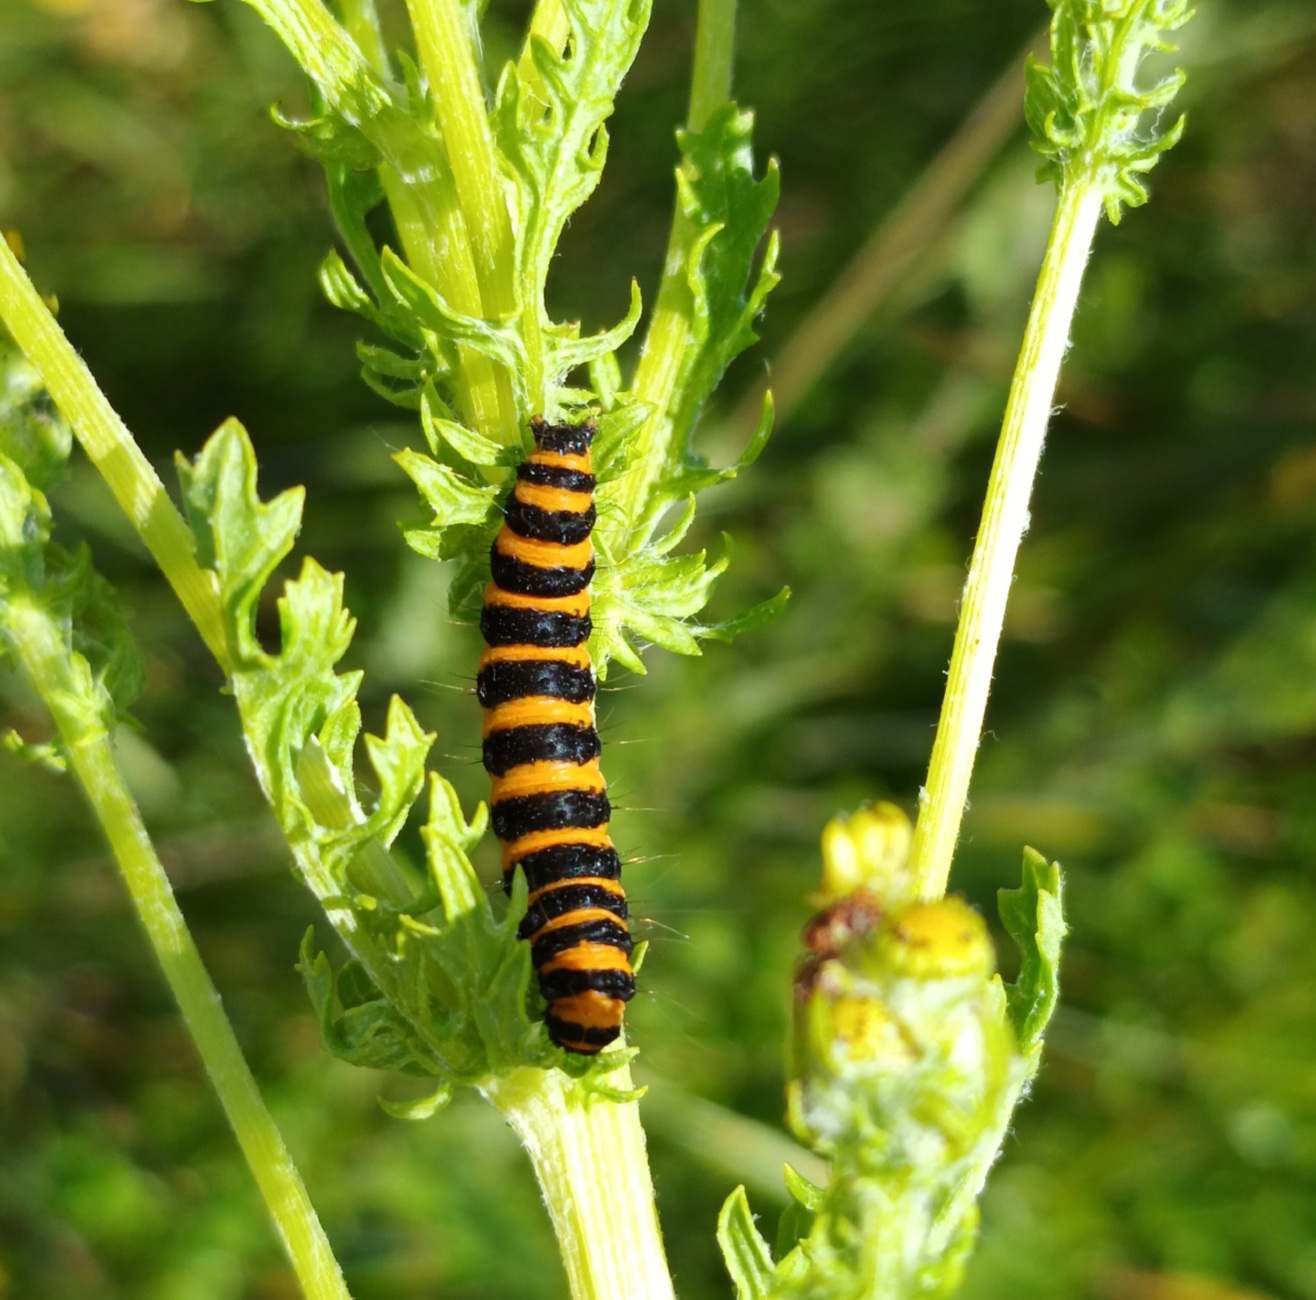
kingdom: Animalia
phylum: Arthropoda
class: Insecta
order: Lepidoptera
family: Erebidae
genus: Tyria
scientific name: Tyria jacobaeae
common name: Blodplet
